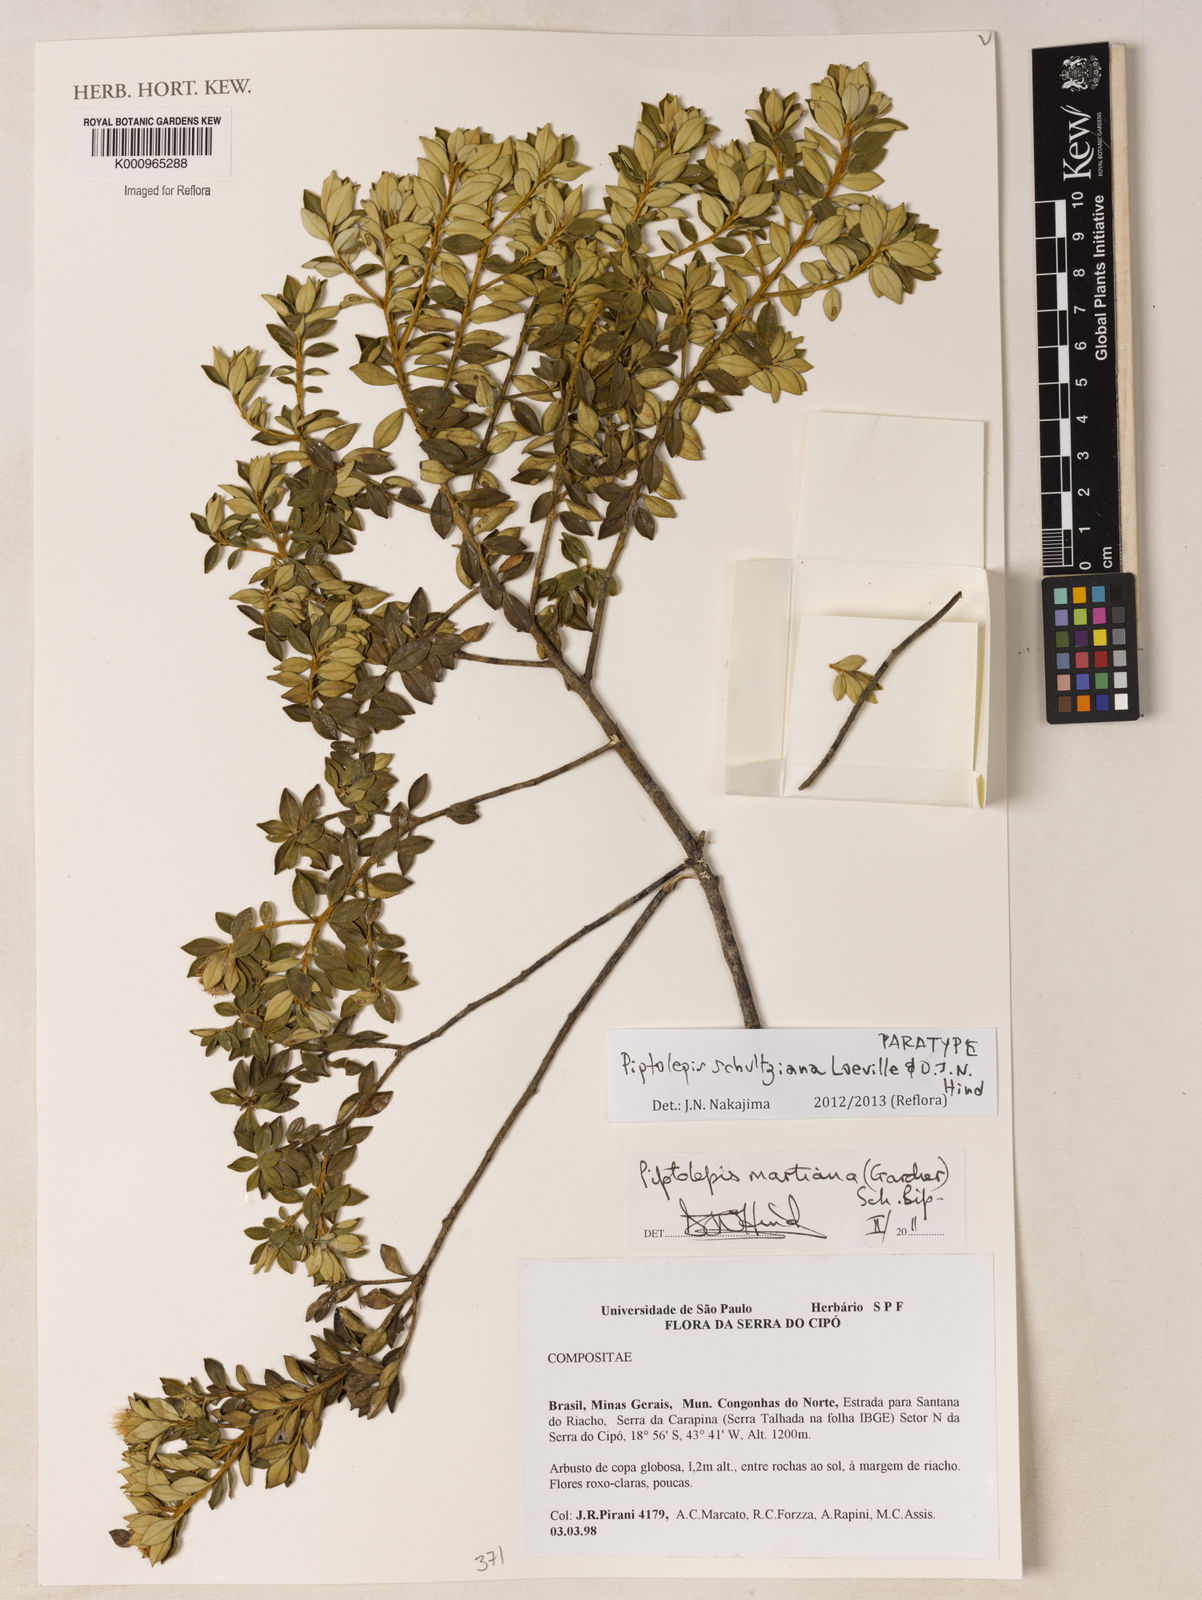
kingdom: Plantae
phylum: Tracheophyta
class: Magnoliopsida
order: Asterales
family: Asteraceae
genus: Piptolepis
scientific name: Piptolepis schultziana
